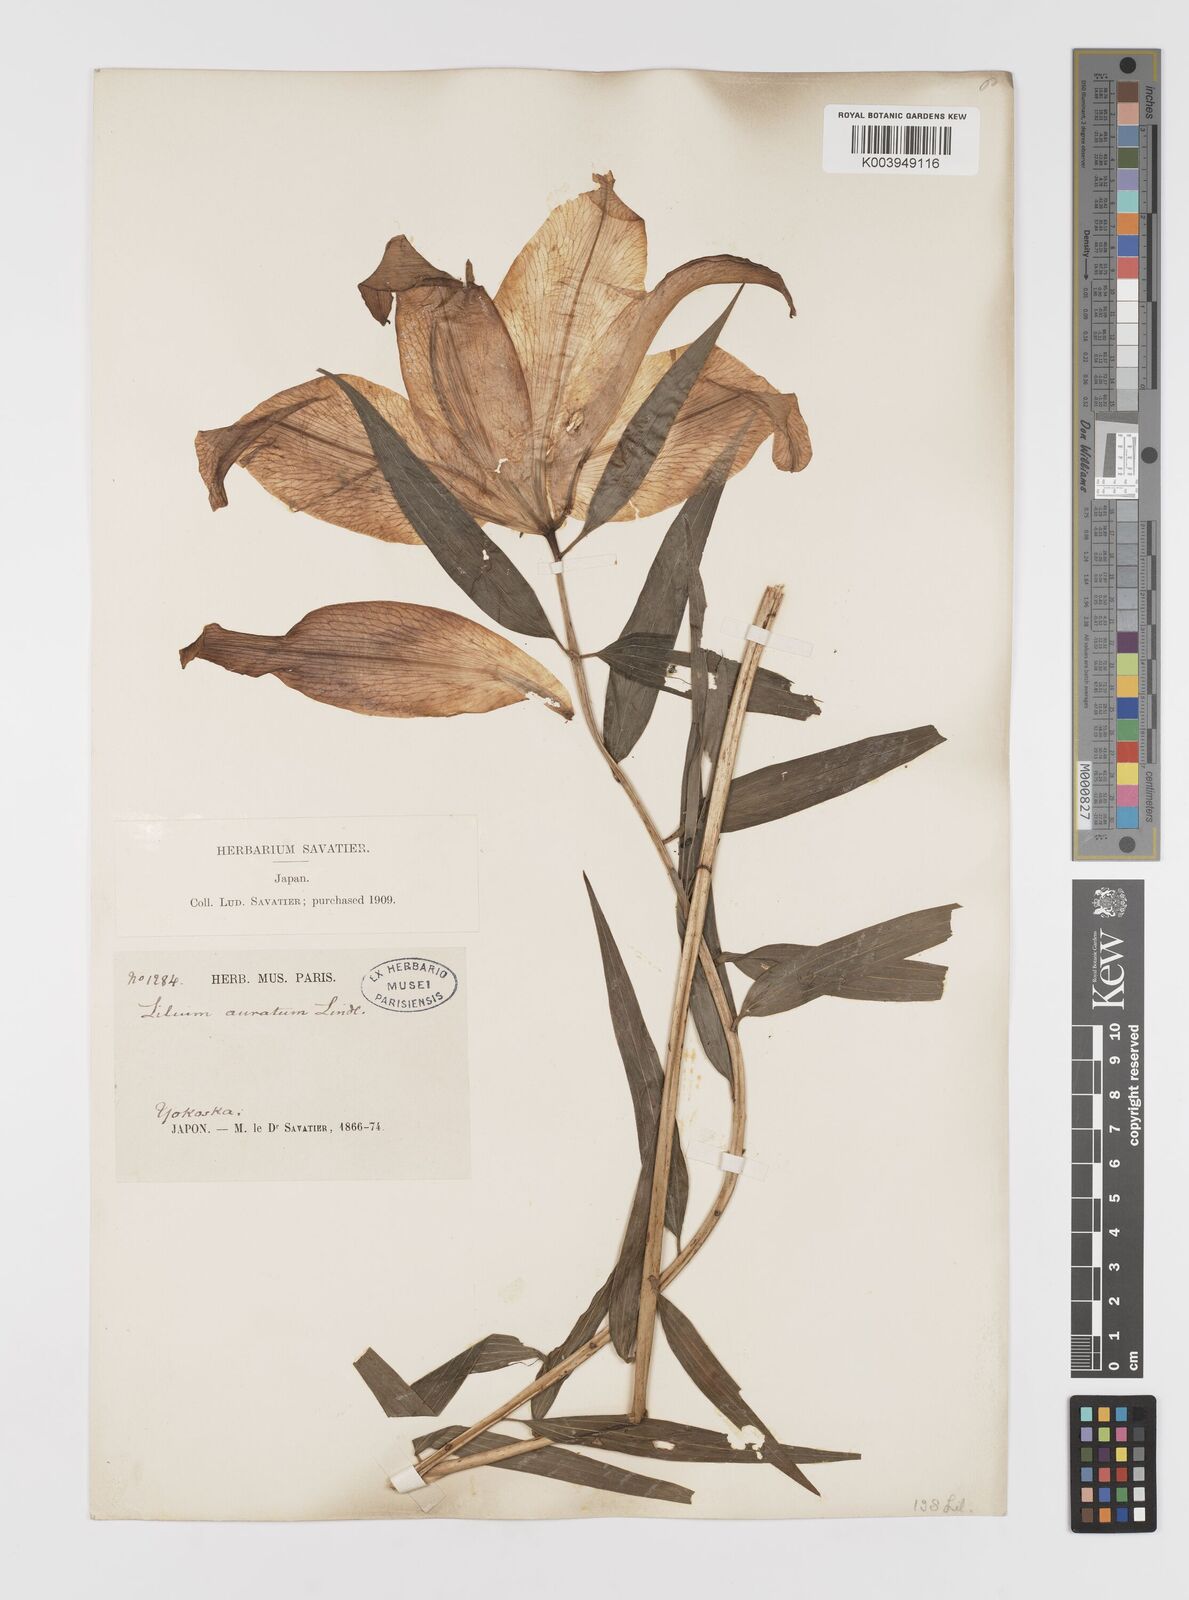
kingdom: Plantae
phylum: Tracheophyta
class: Liliopsida
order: Liliales
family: Liliaceae
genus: Lilium
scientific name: Lilium auratum
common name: Golden-ray lily
